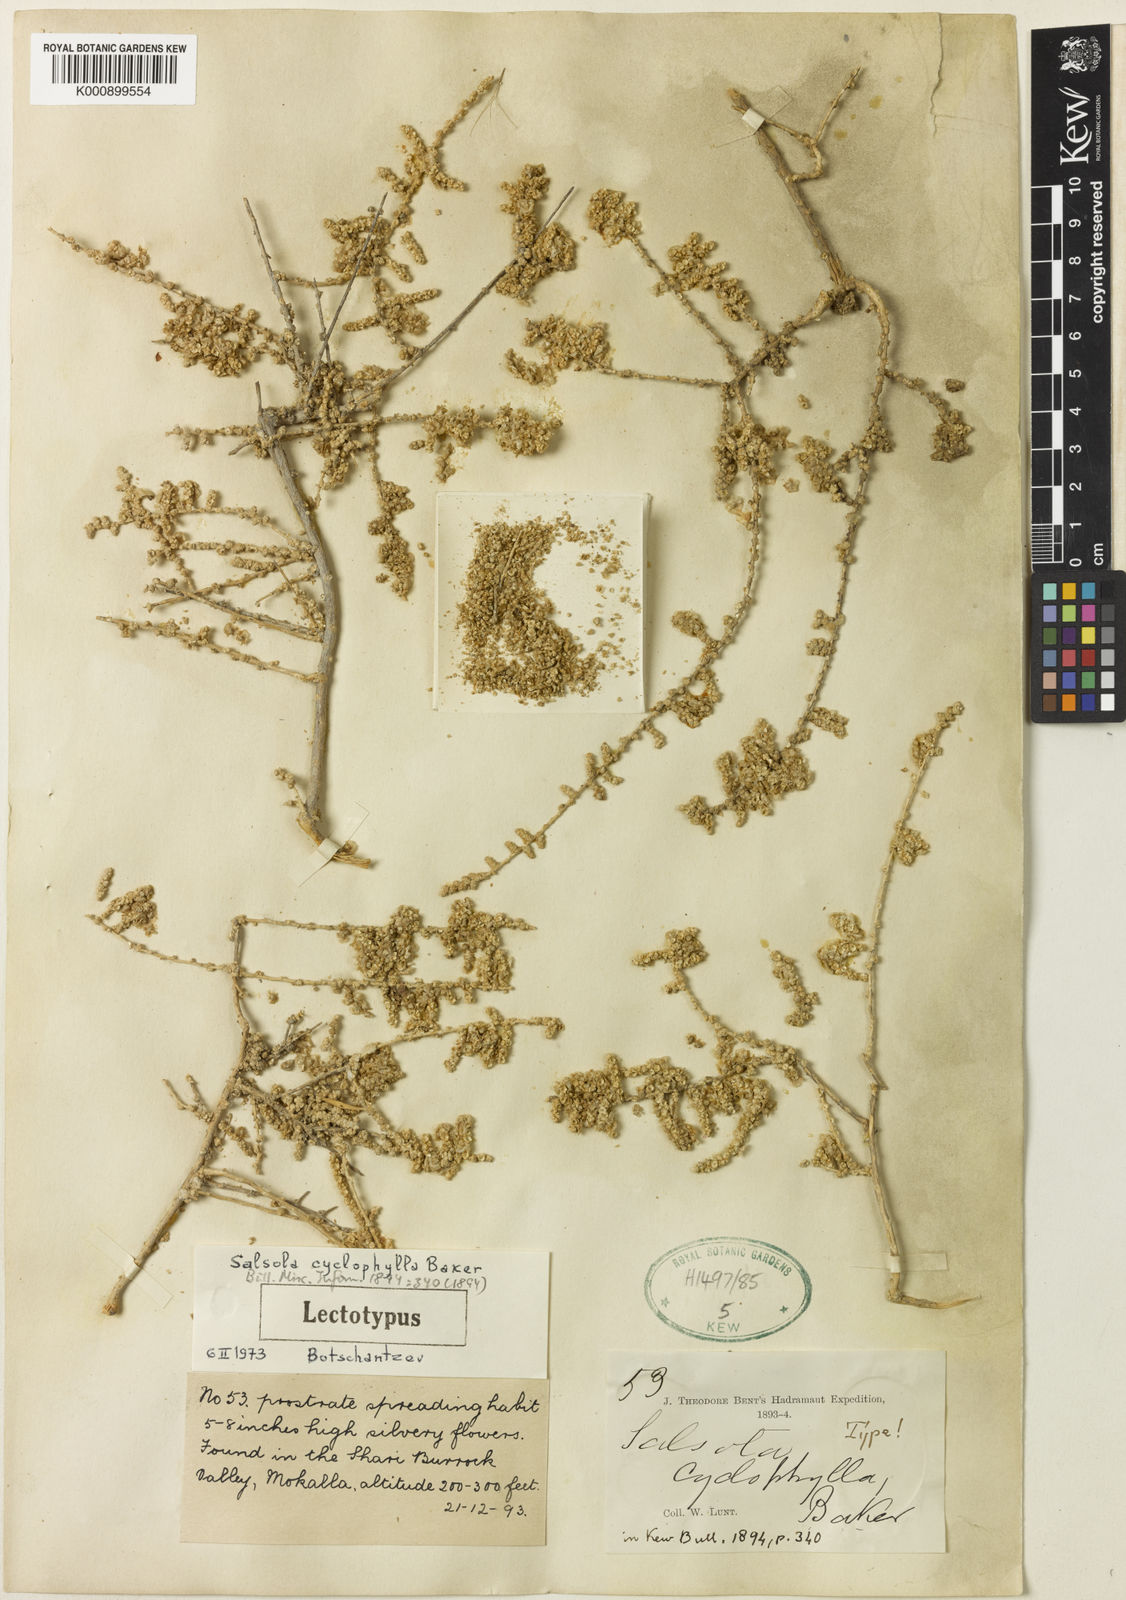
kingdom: Plantae
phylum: Tracheophyta
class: Magnoliopsida
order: Caryophyllales
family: Amaranthaceae
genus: Caroxylon
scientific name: Caroxylon cyclophyllum
